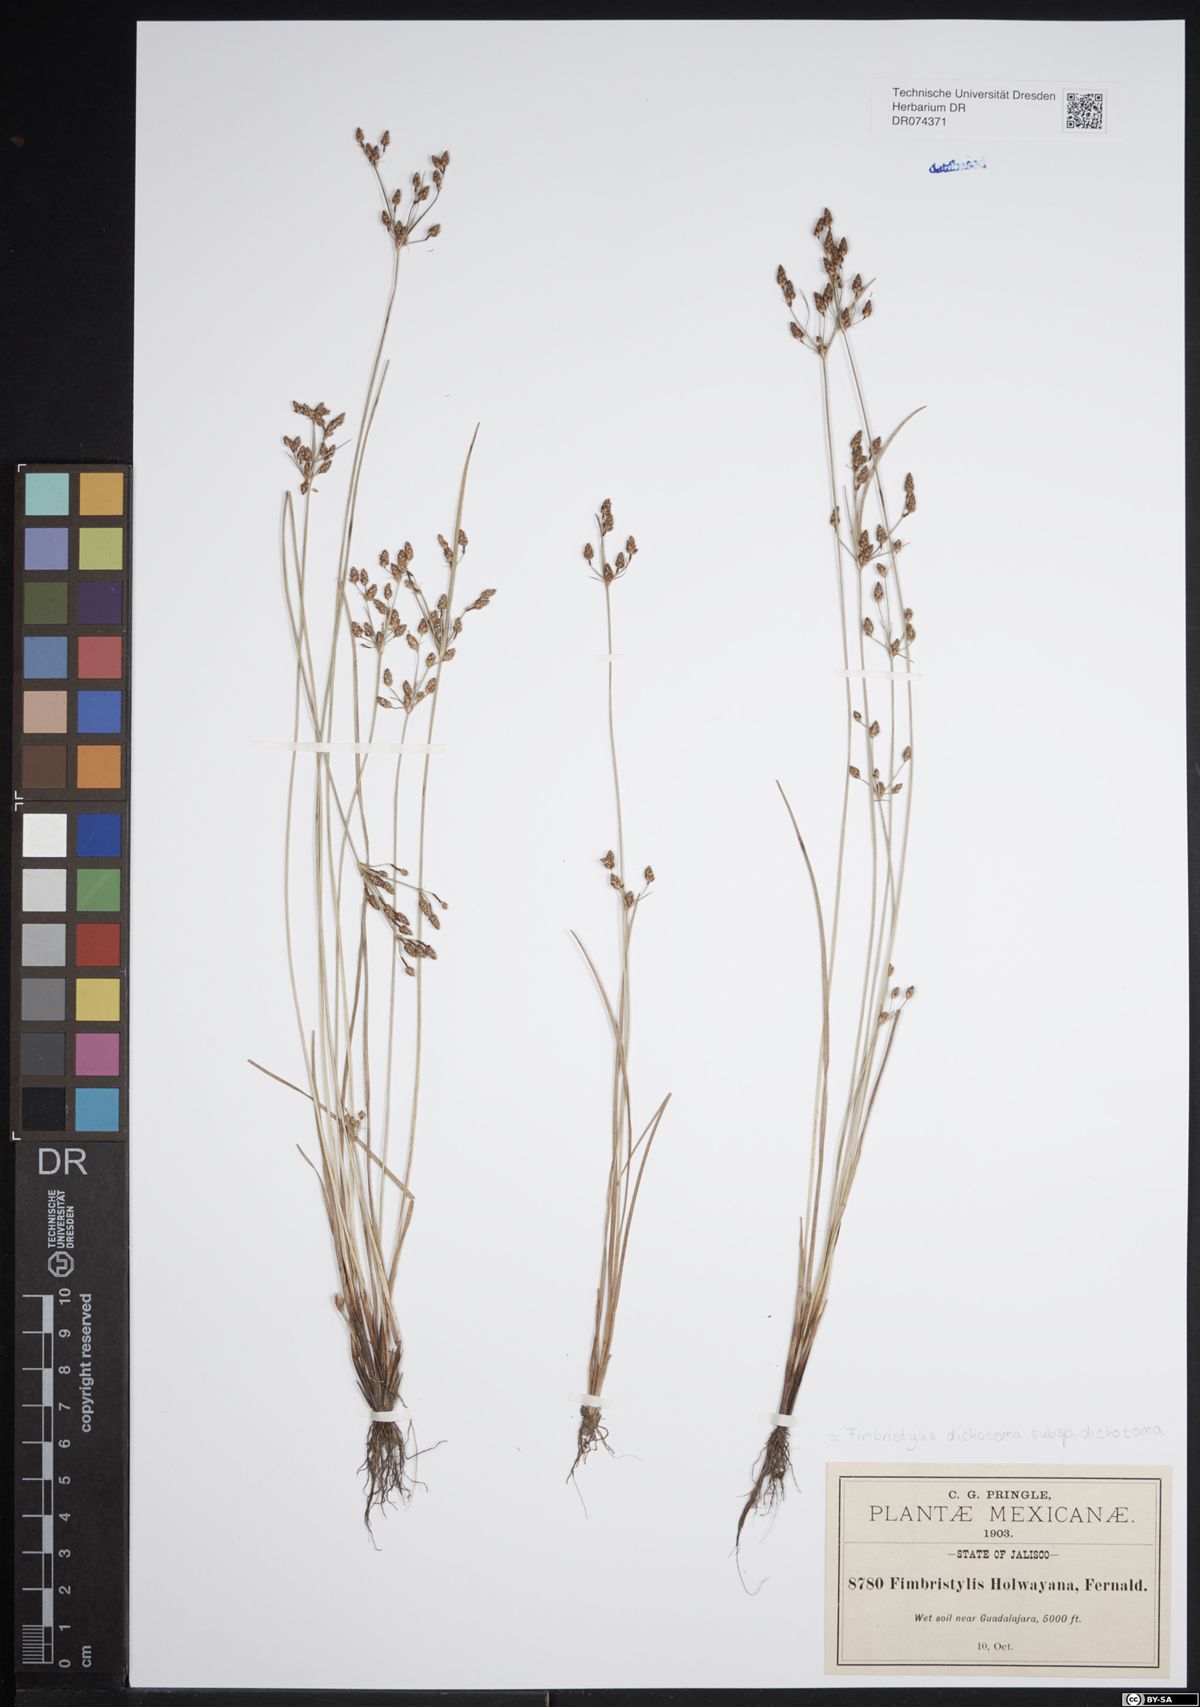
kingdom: Plantae
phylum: Tracheophyta
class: Liliopsida
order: Poales
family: Cyperaceae
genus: Fimbristylis
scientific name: Fimbristylis dichotoma
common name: Forked fimbry
